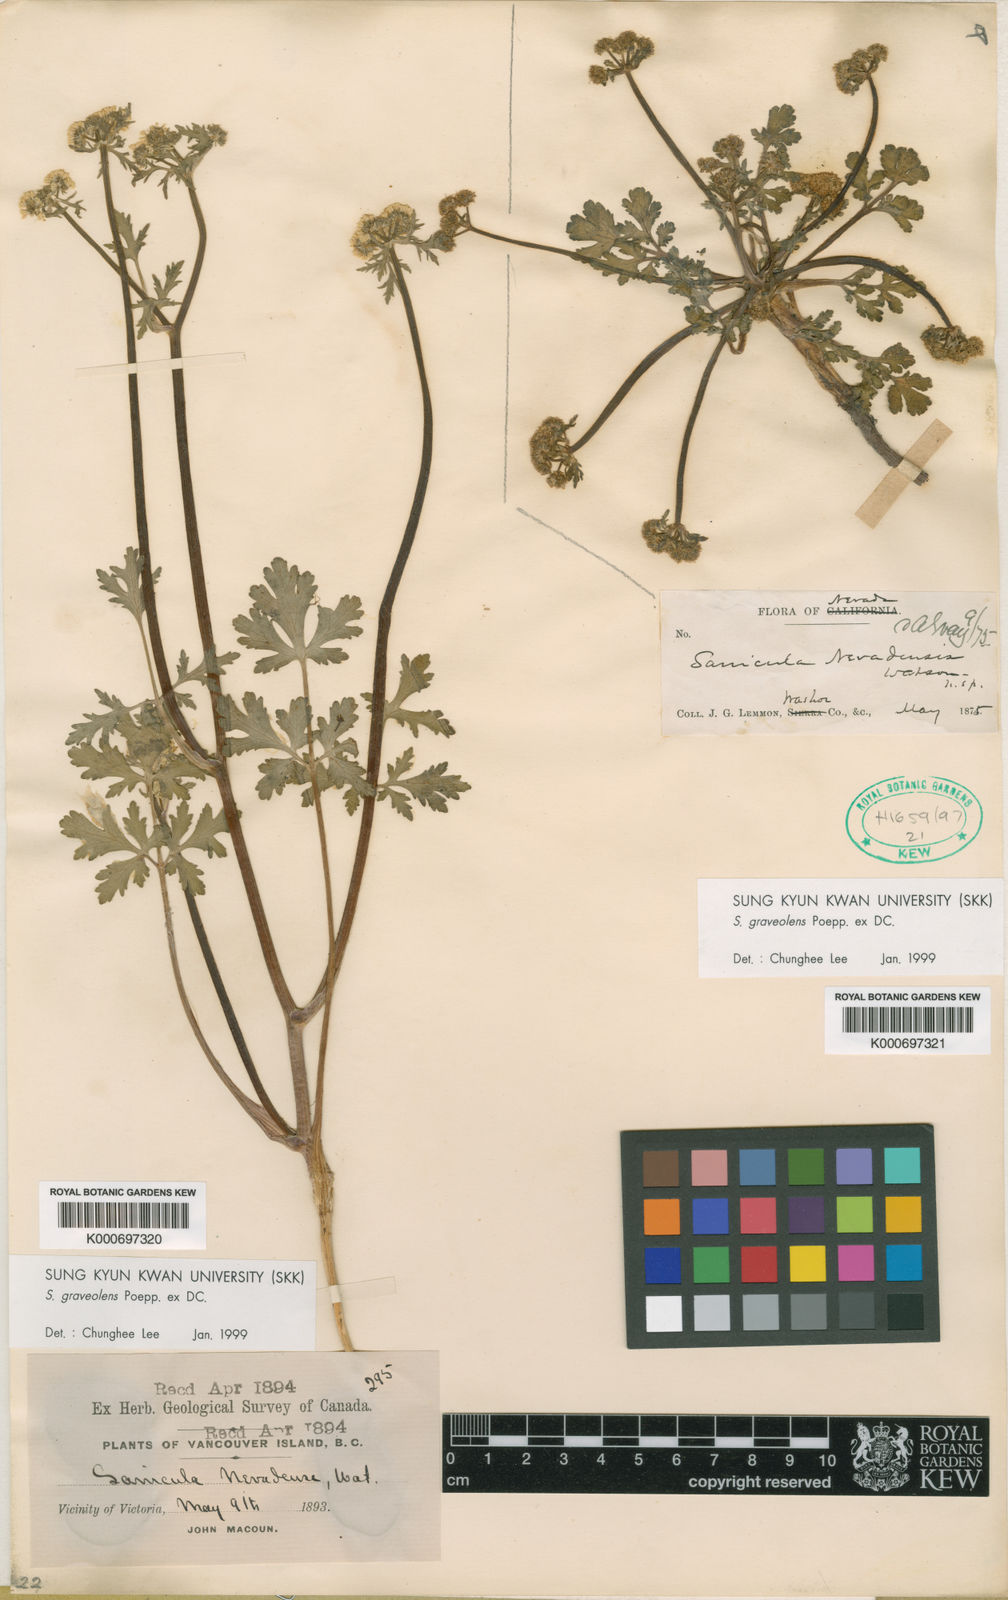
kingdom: Plantae
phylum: Tracheophyta
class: Magnoliopsida
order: Apiales
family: Apiaceae
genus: Sanicula
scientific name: Sanicula graveolens
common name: Sierra sanicle
